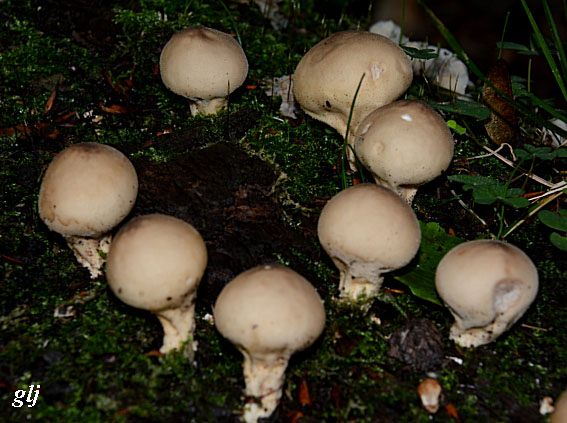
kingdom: Fungi
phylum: Basidiomycota
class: Agaricomycetes
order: Agaricales
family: Lycoperdaceae
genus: Apioperdon
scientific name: Apioperdon pyriforme
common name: pære-støvbold
